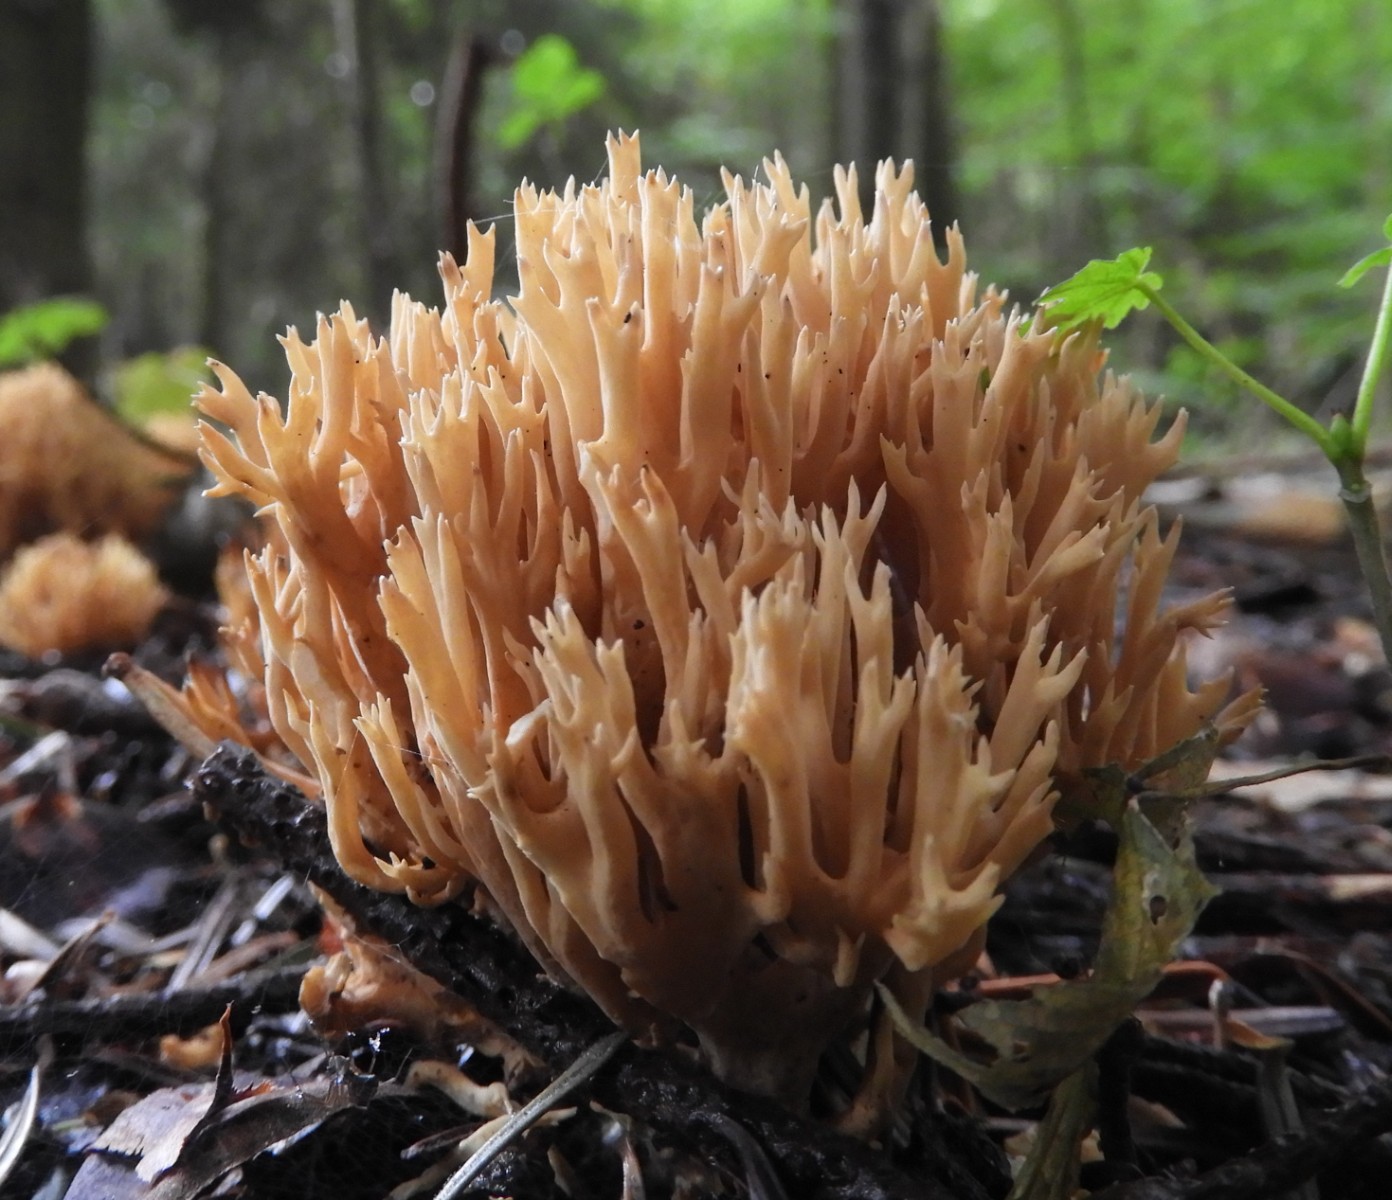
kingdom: Fungi
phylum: Basidiomycota
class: Agaricomycetes
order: Gomphales
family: Gomphaceae
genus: Phaeoclavulina
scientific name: Phaeoclavulina eumorpha
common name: gran-koralsvamp
